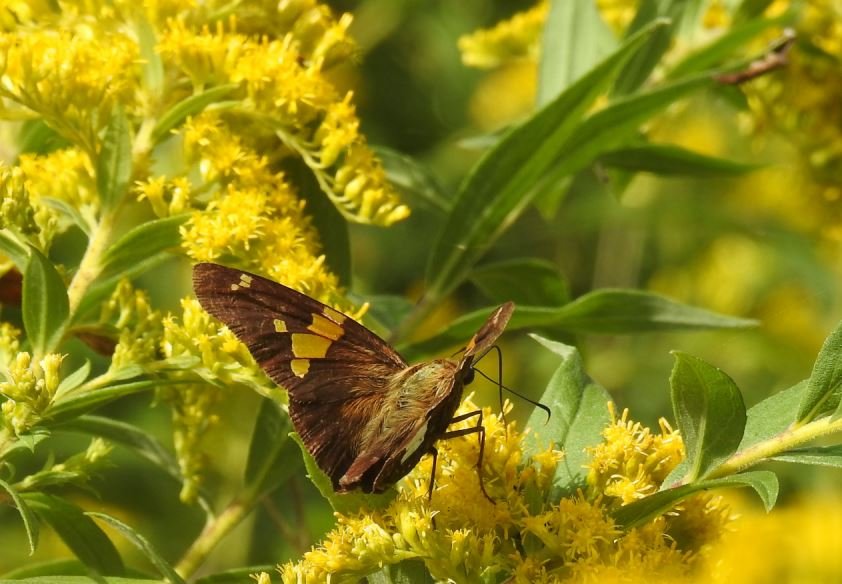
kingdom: Animalia
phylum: Arthropoda
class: Insecta
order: Lepidoptera
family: Hesperiidae
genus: Epargyreus
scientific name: Epargyreus clarus
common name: Silver-spotted Skipper
